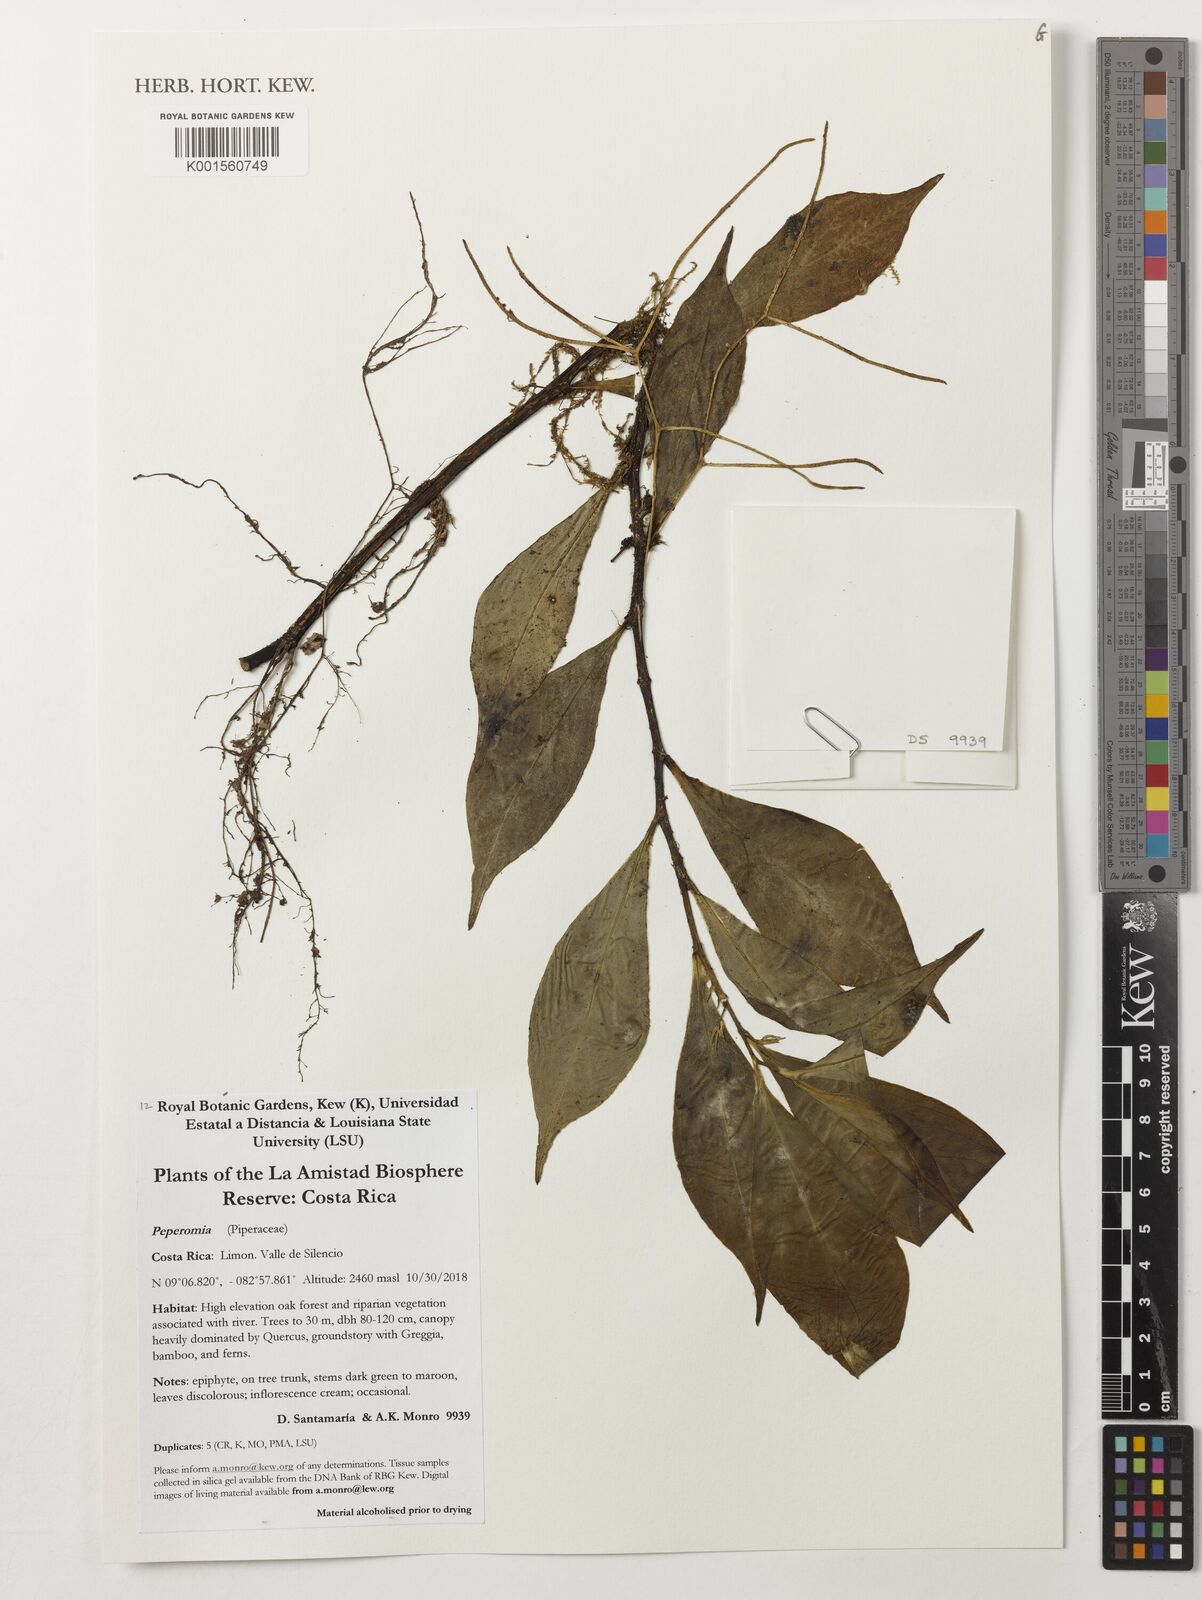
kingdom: Plantae
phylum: Tracheophyta
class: Magnoliopsida
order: Piperales
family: Piperaceae
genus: Peperomia
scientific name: Peperomia
